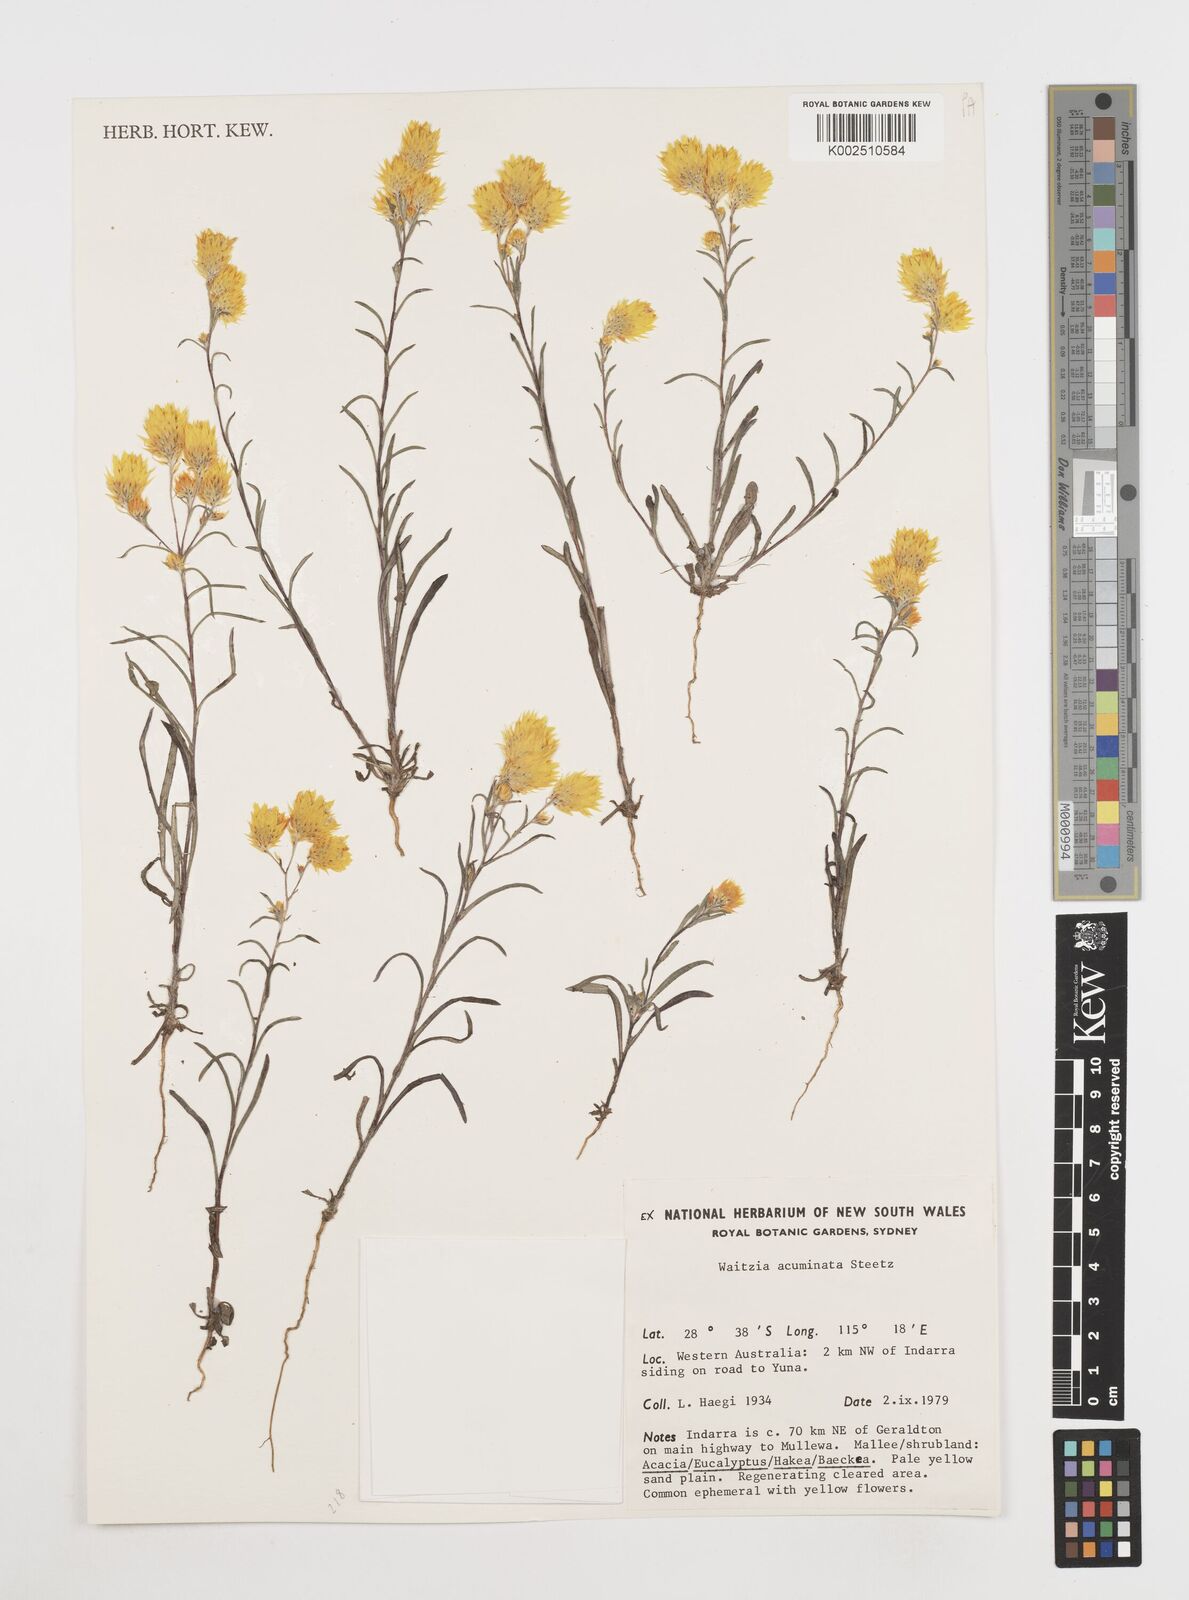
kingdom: Plantae
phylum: Tracheophyta
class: Magnoliopsida
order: Asterales
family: Asteraceae
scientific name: Asteraceae
